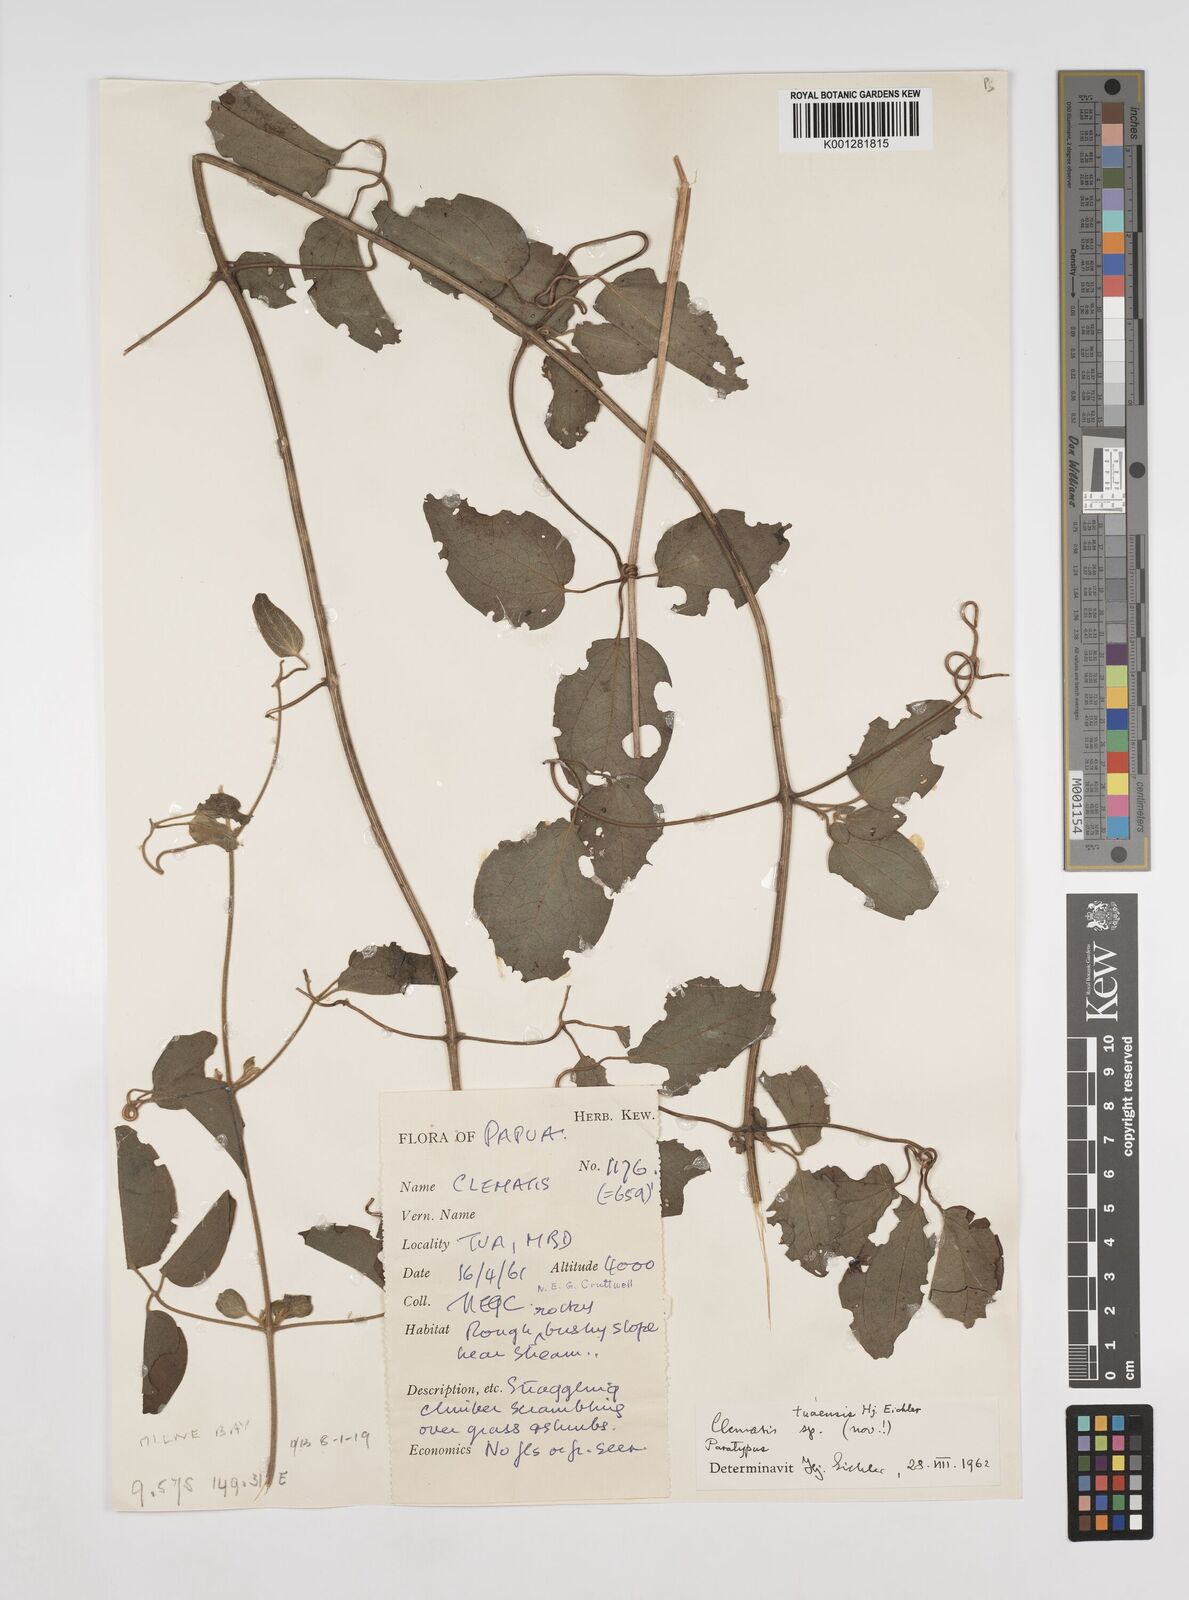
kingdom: Plantae
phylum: Tracheophyta
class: Magnoliopsida
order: Ranunculales
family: Ranunculaceae
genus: Clematis
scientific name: Clematis tuaensis
